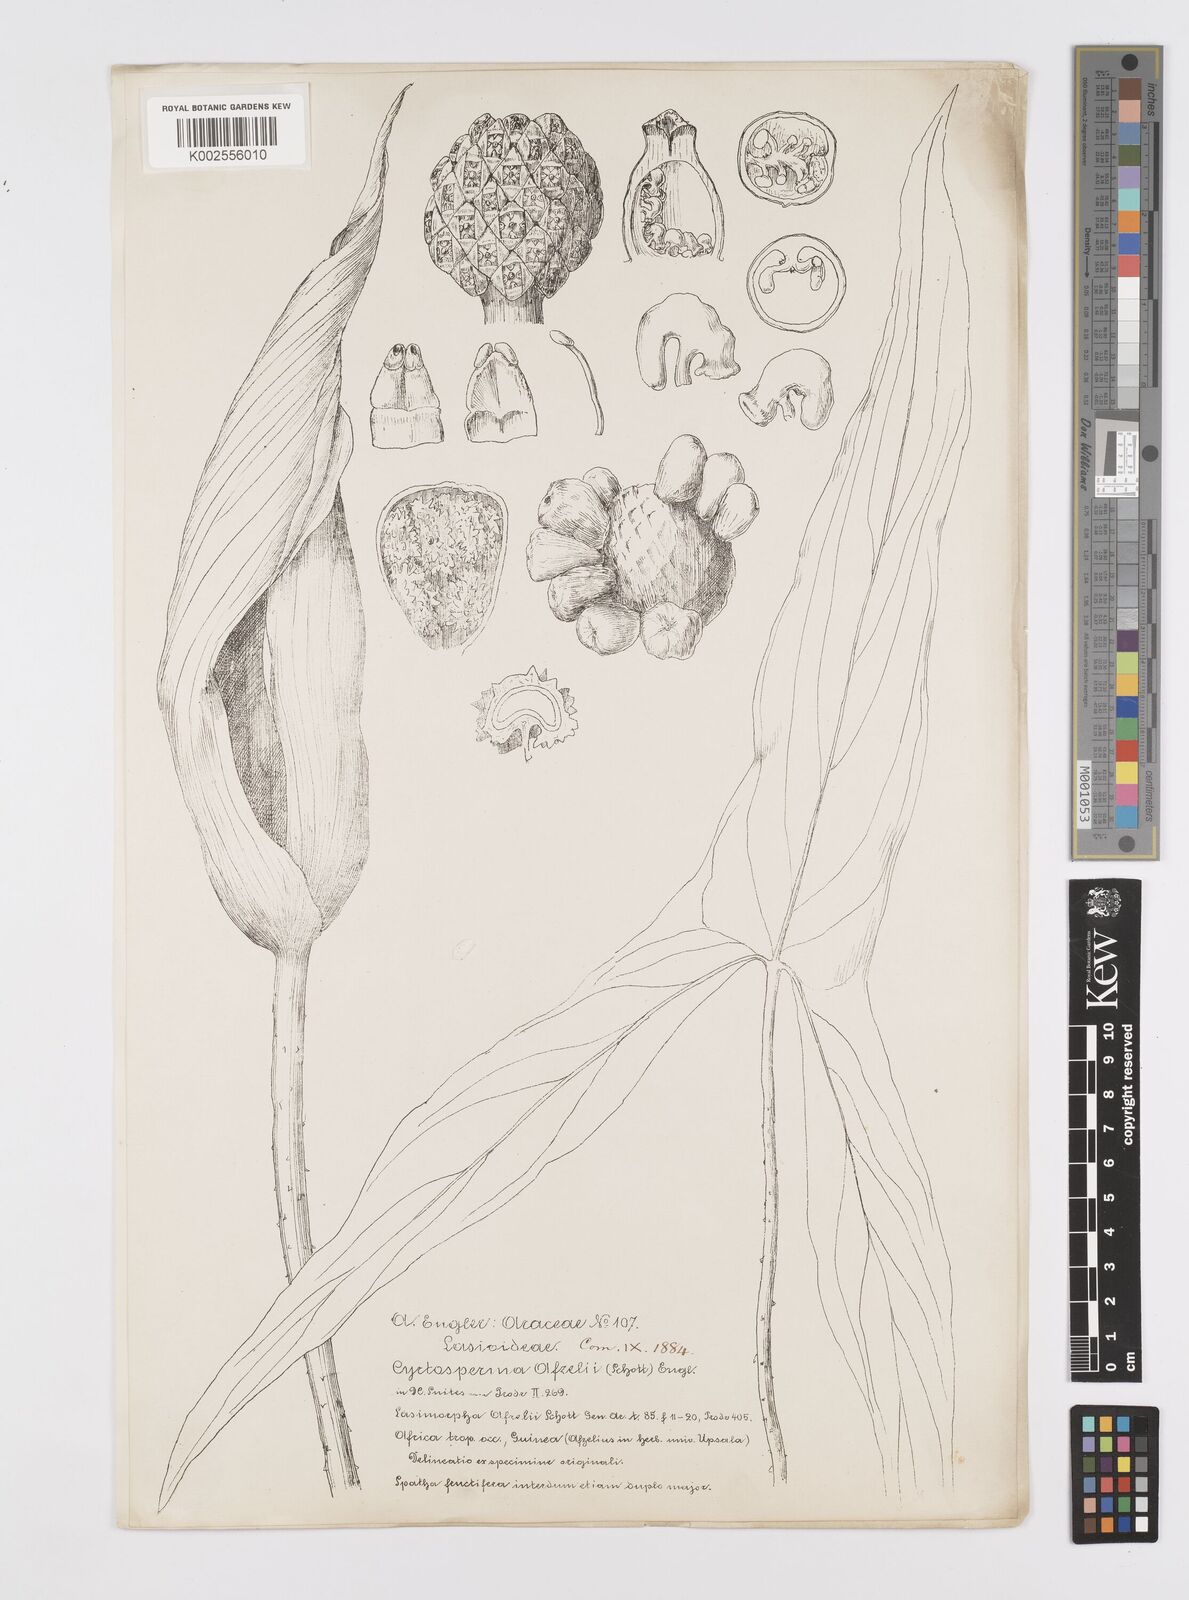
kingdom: Plantae
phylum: Tracheophyta
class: Liliopsida
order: Alismatales
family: Araceae
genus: Lasimorpha
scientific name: Lasimorpha senegalensis
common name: Swamp arum
